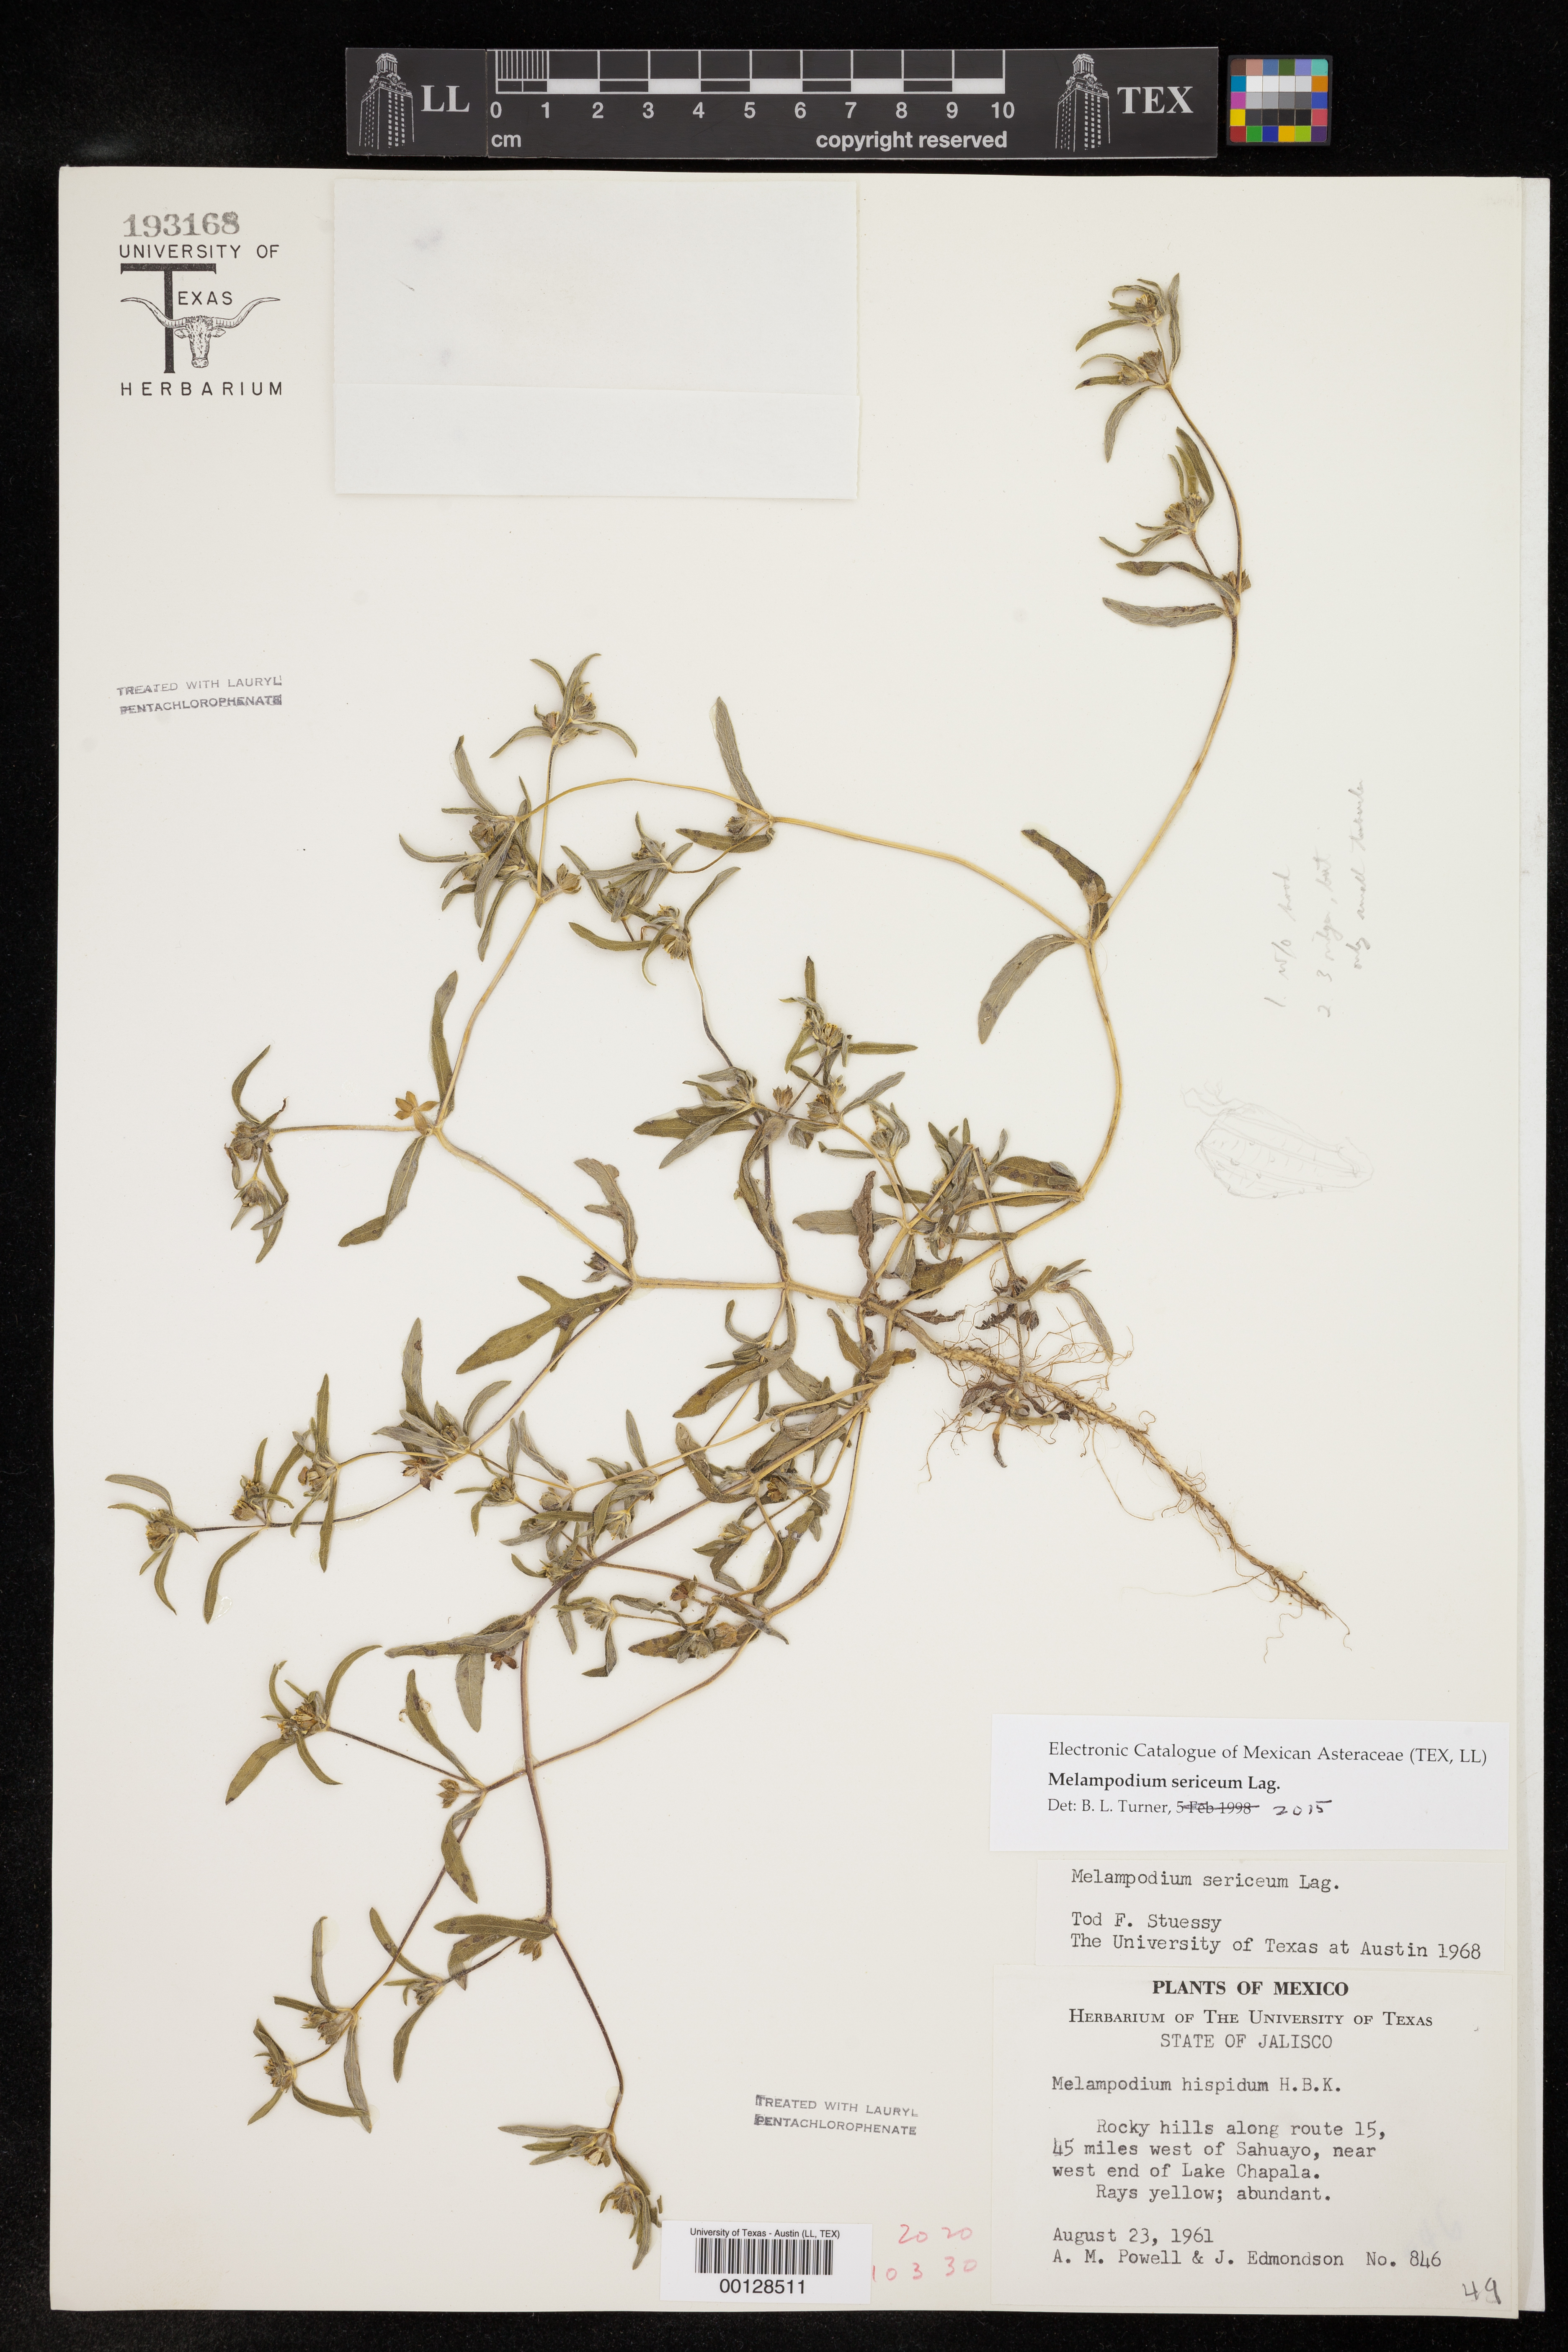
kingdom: Plantae
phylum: Tracheophyta
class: Magnoliopsida
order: Asterales
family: Asteraceae
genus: Melampodium
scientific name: Melampodium sericeum
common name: Rough blackfoot
